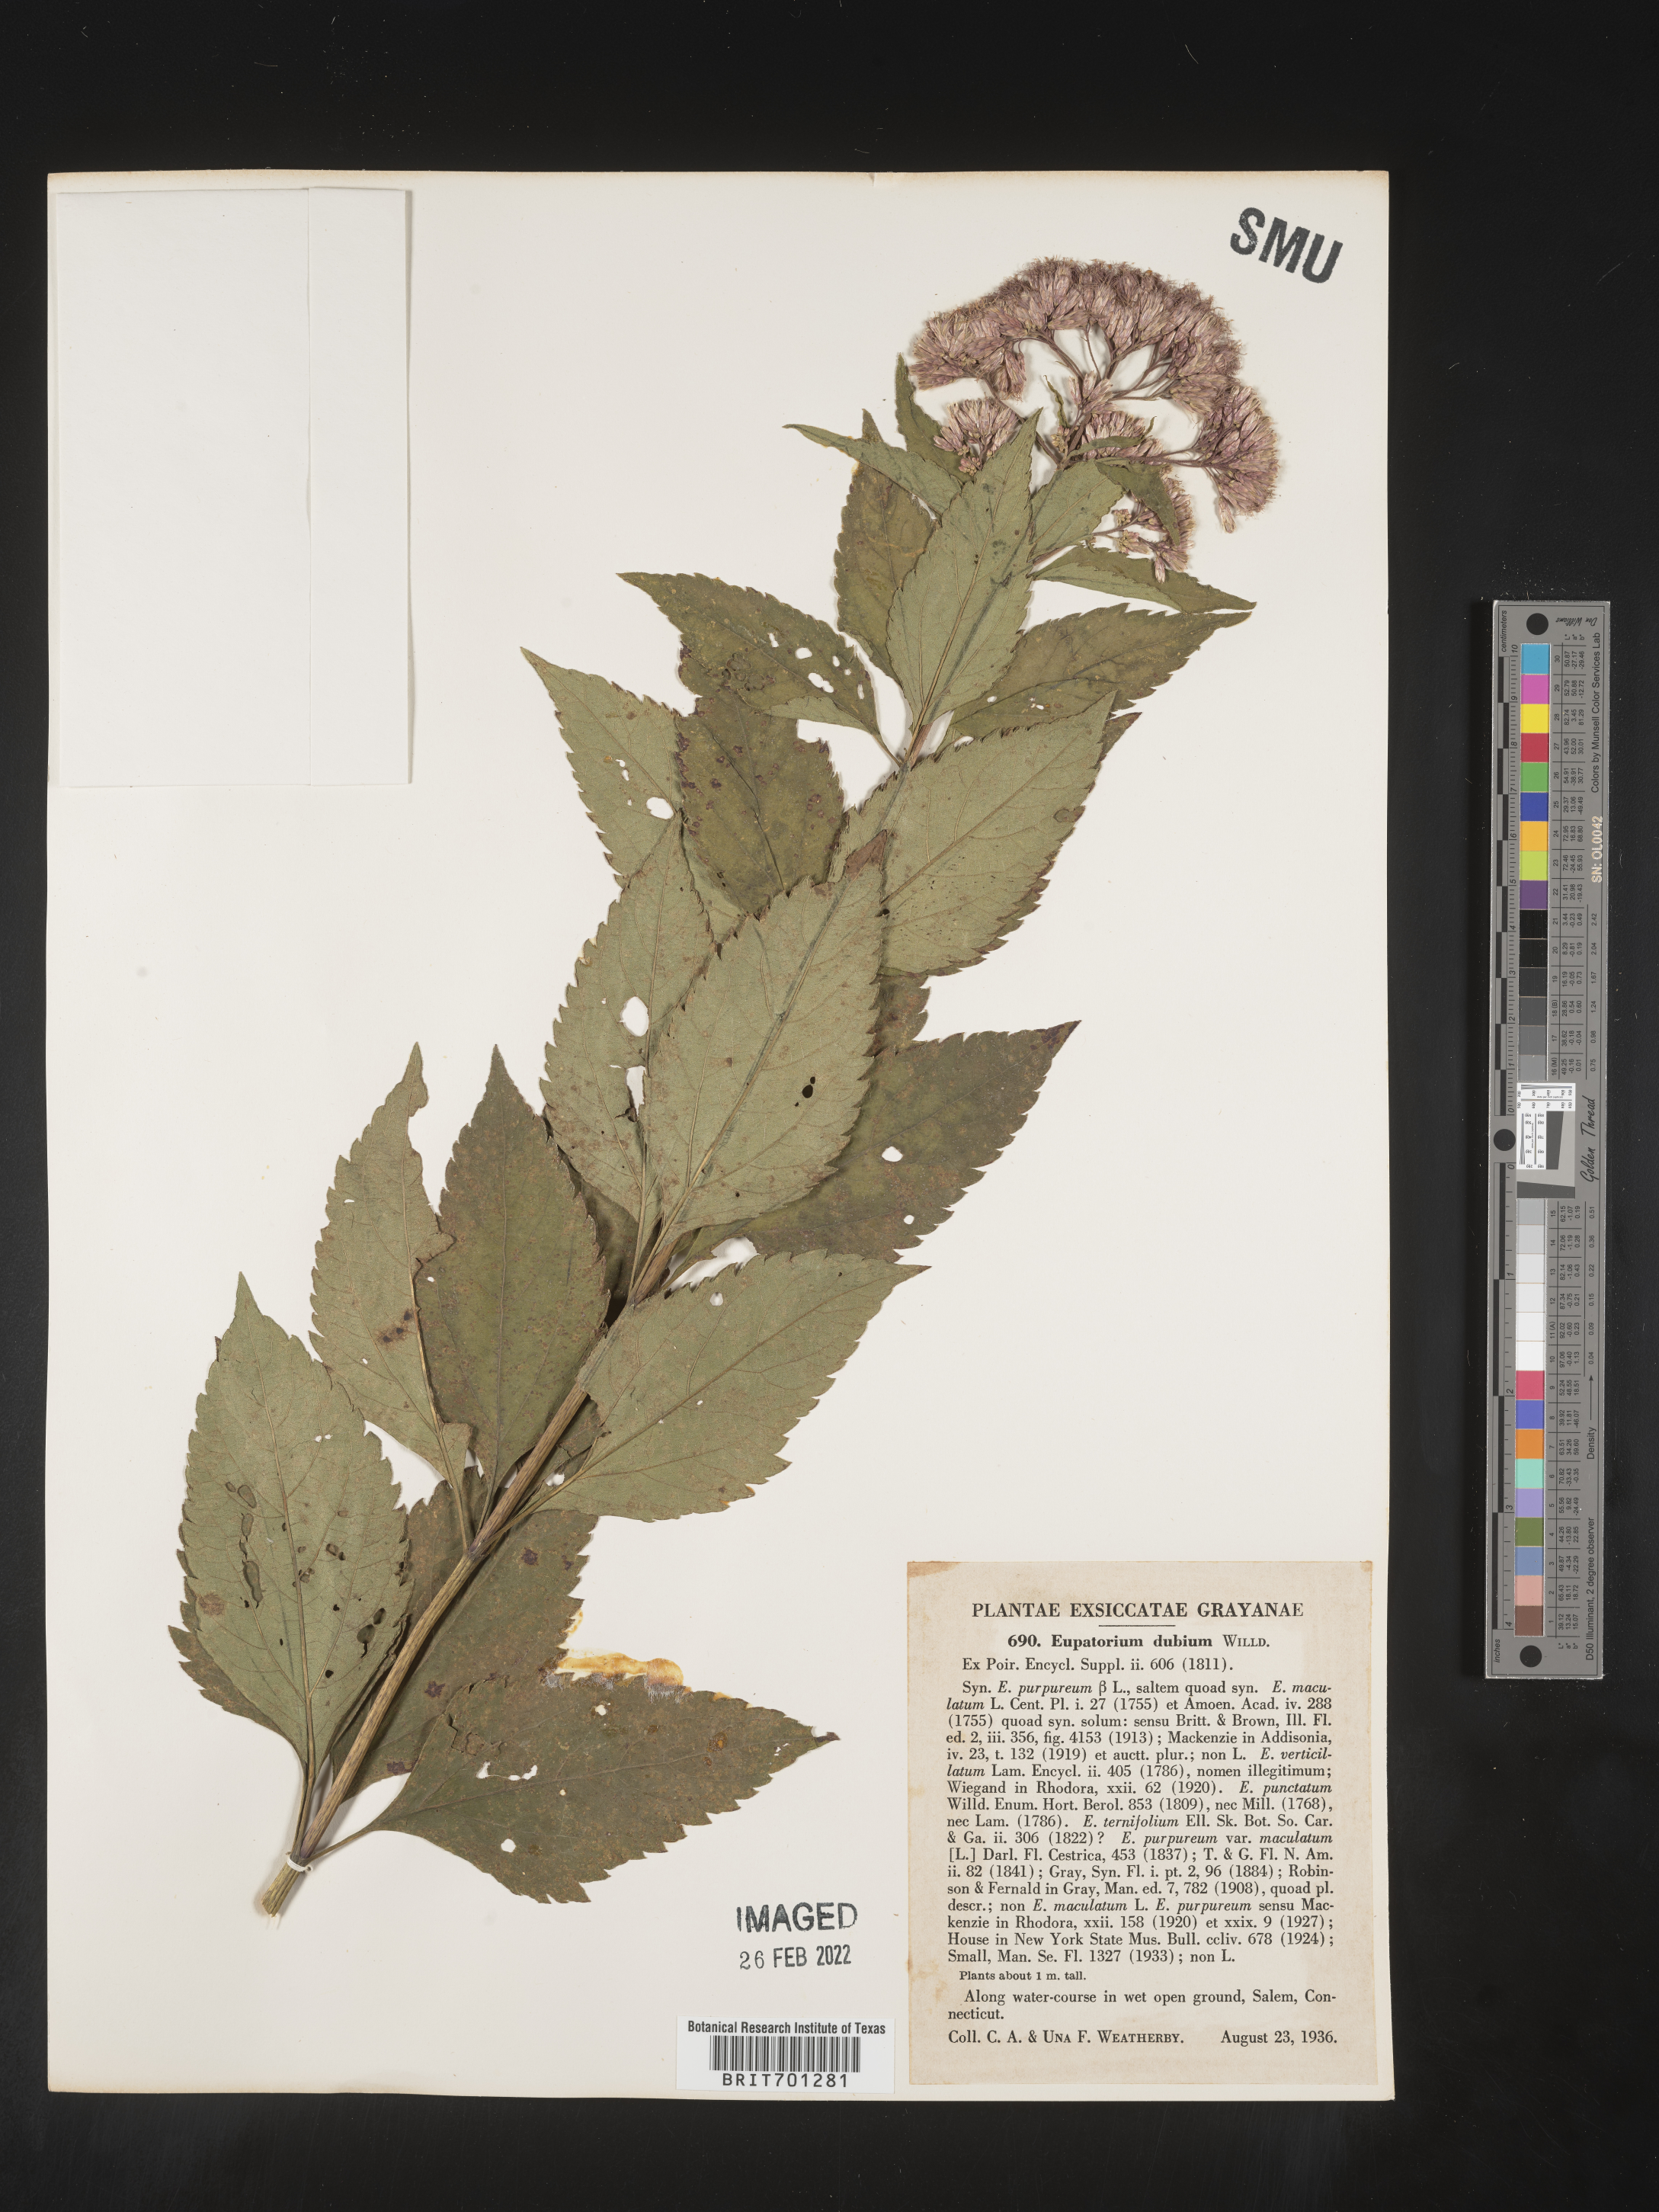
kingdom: Plantae
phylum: Tracheophyta
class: Magnoliopsida
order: Asterales
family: Asteraceae
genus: Eutrochium
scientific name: Eutrochium dubium
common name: Coastal plain joe pye weed
